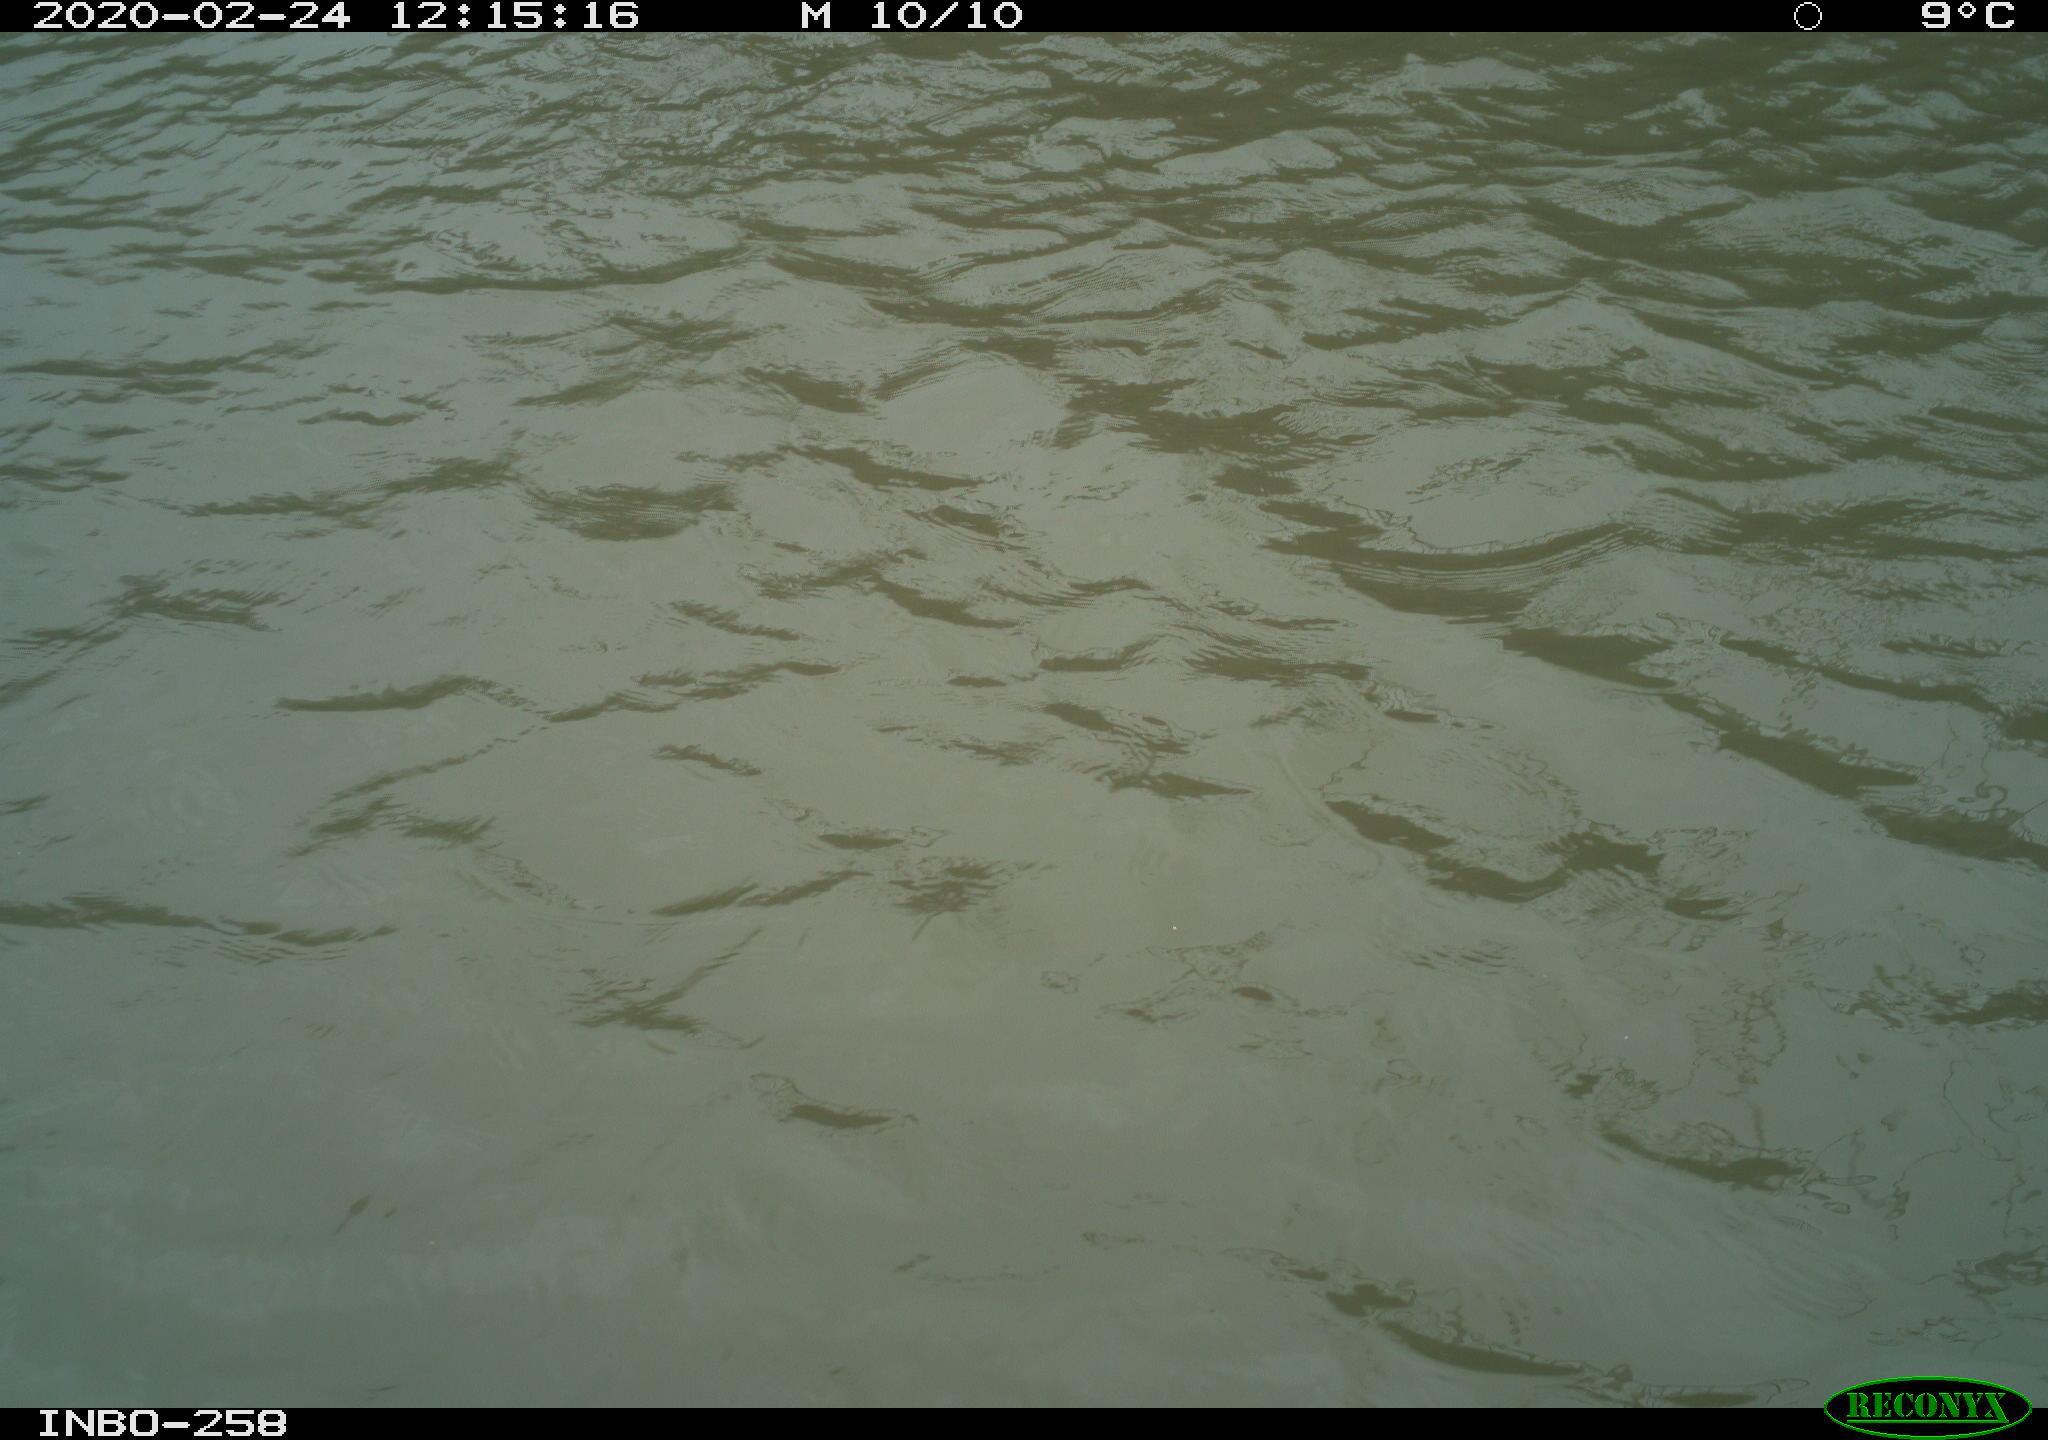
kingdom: Animalia
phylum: Chordata
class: Aves
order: Gruiformes
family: Rallidae
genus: Gallinula
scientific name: Gallinula chloropus
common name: Common moorhen
